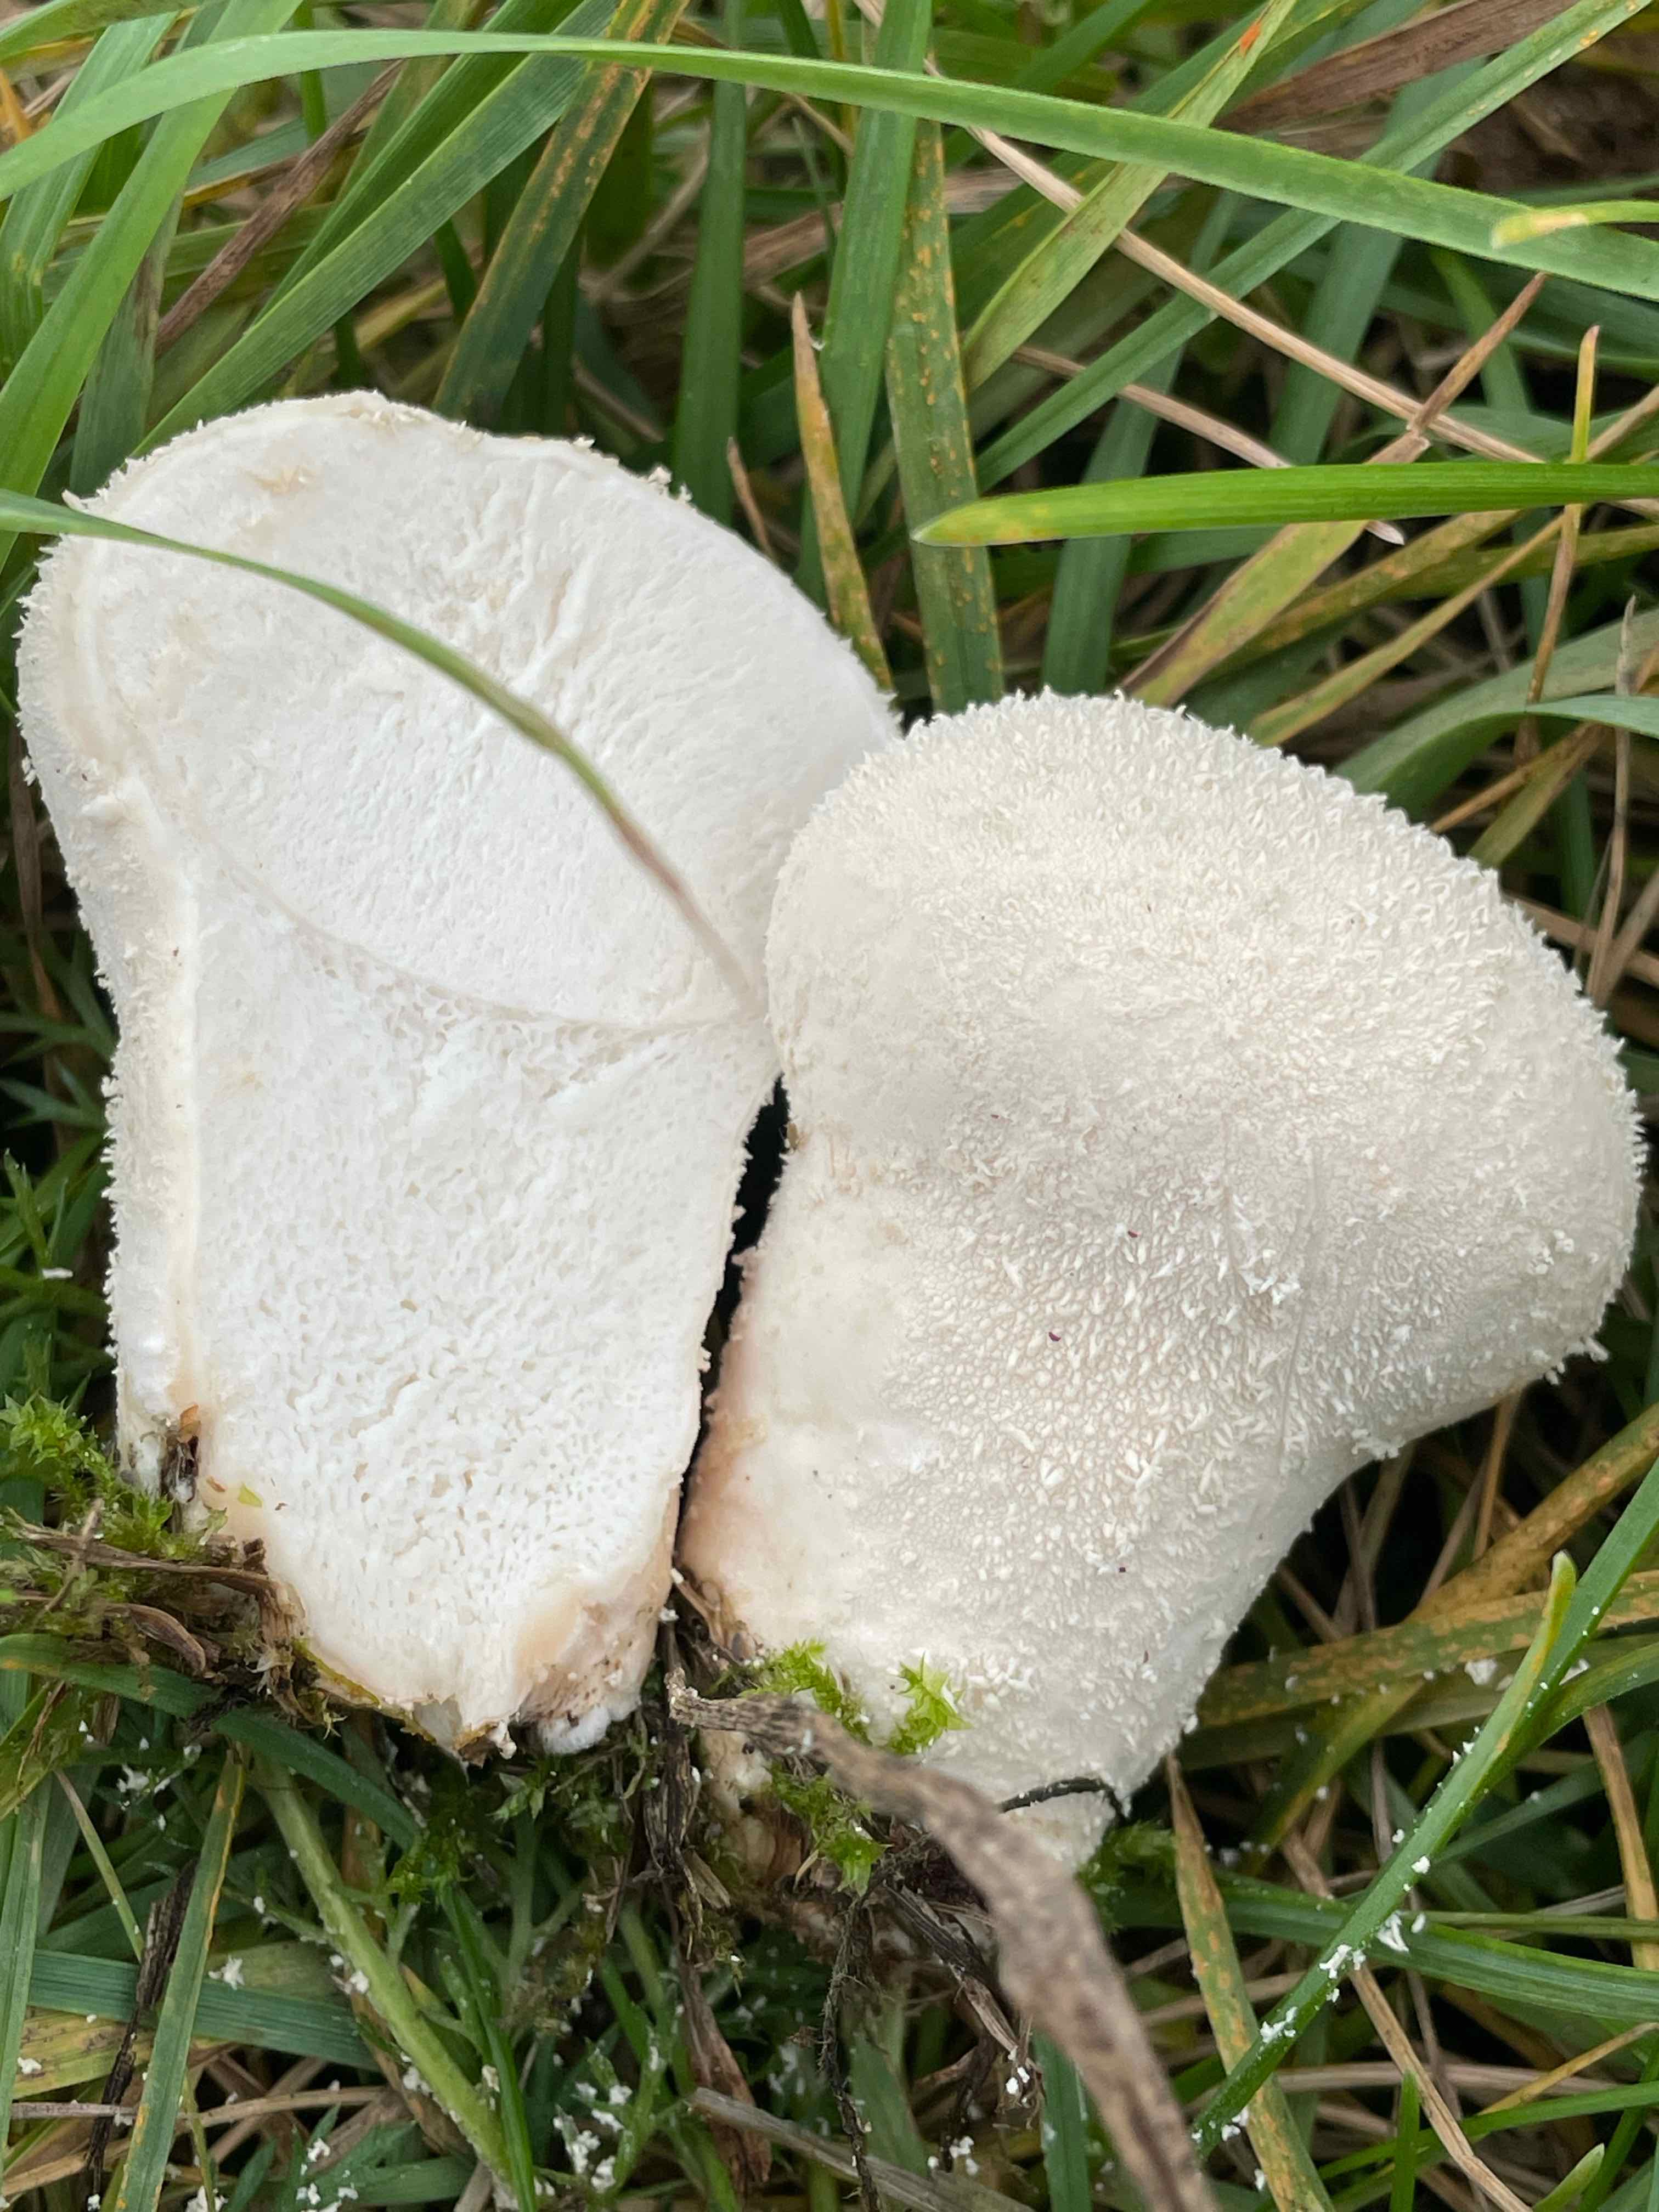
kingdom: Fungi
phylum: Basidiomycota
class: Agaricomycetes
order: Agaricales
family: Lycoperdaceae
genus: Lycoperdon
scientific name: Lycoperdon pratense
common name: flad støvbold
